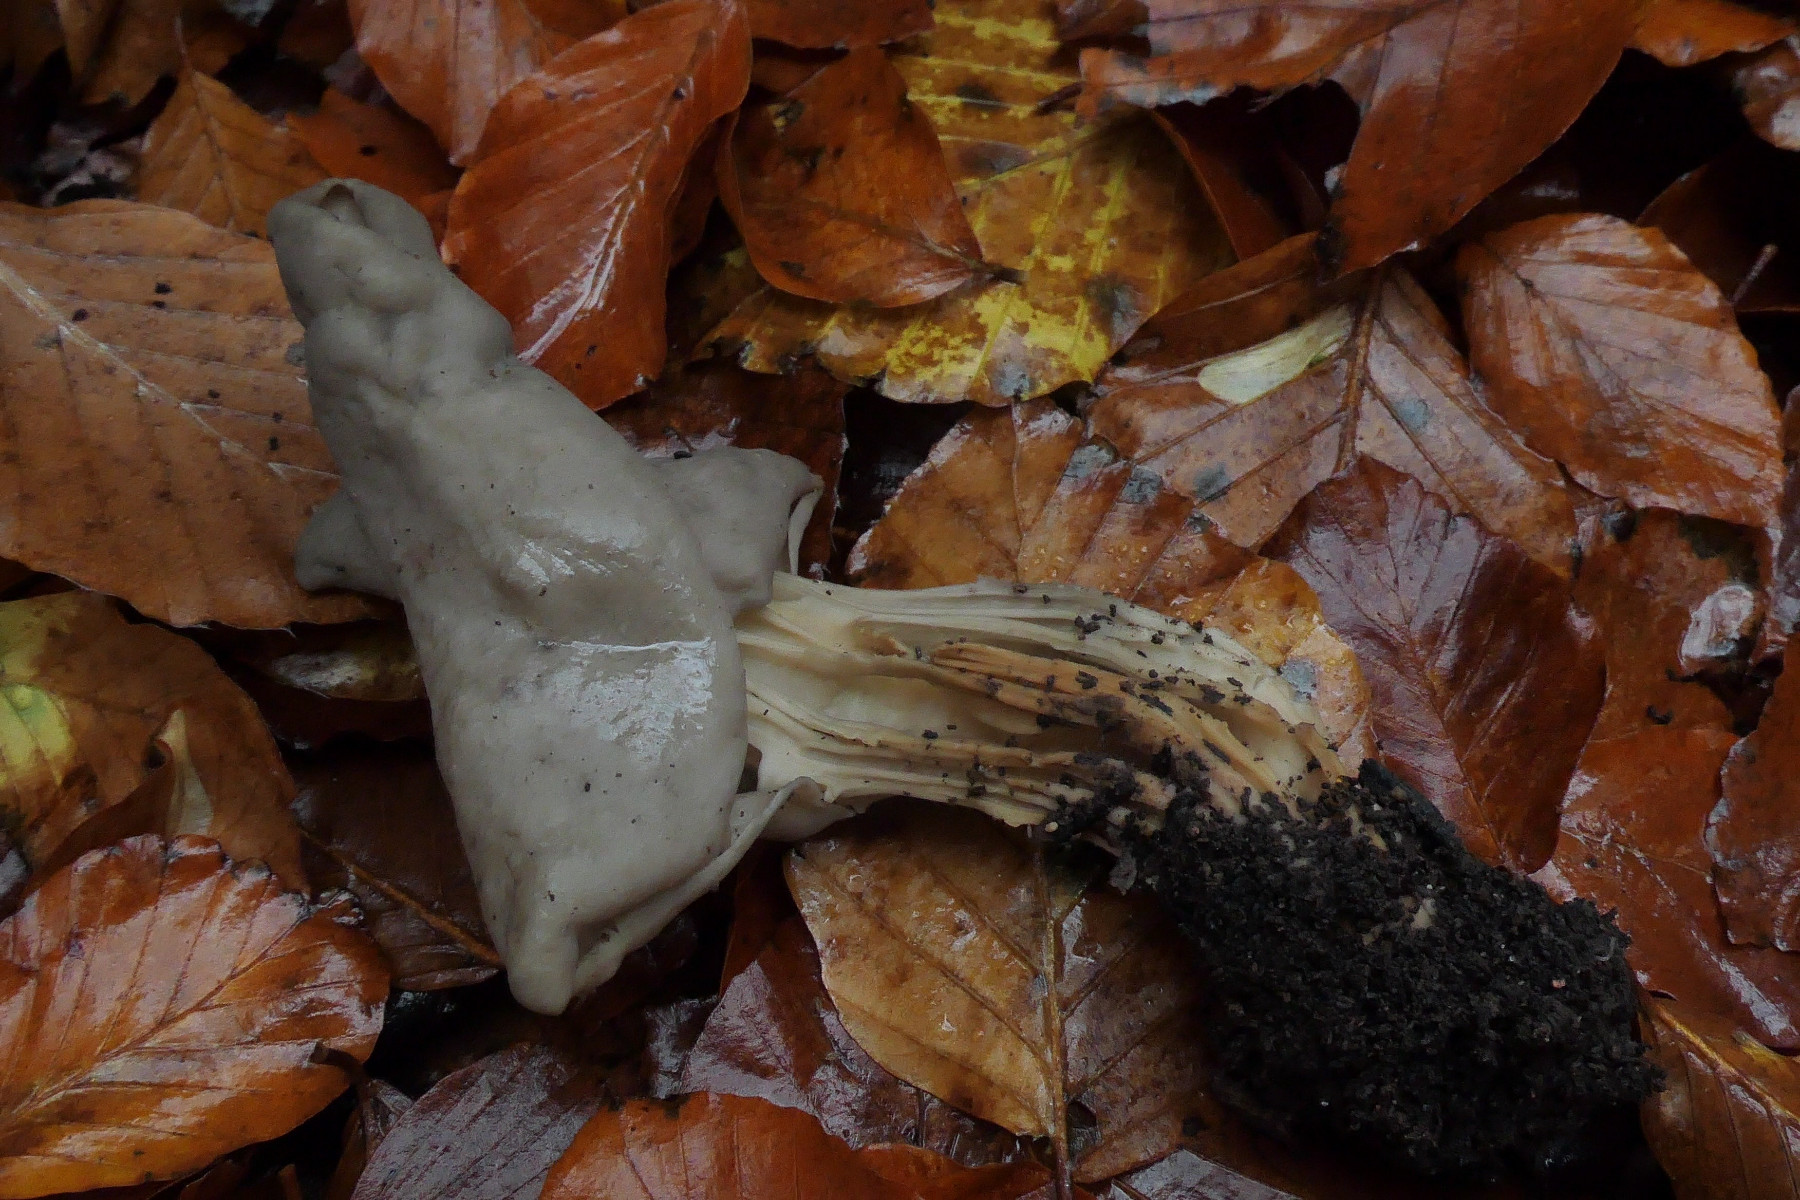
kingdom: Fungi
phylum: Ascomycota
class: Pezizomycetes
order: Pezizales
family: Helvellaceae
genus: Helvella
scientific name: Helvella lacunosa
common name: grubet foldhat
